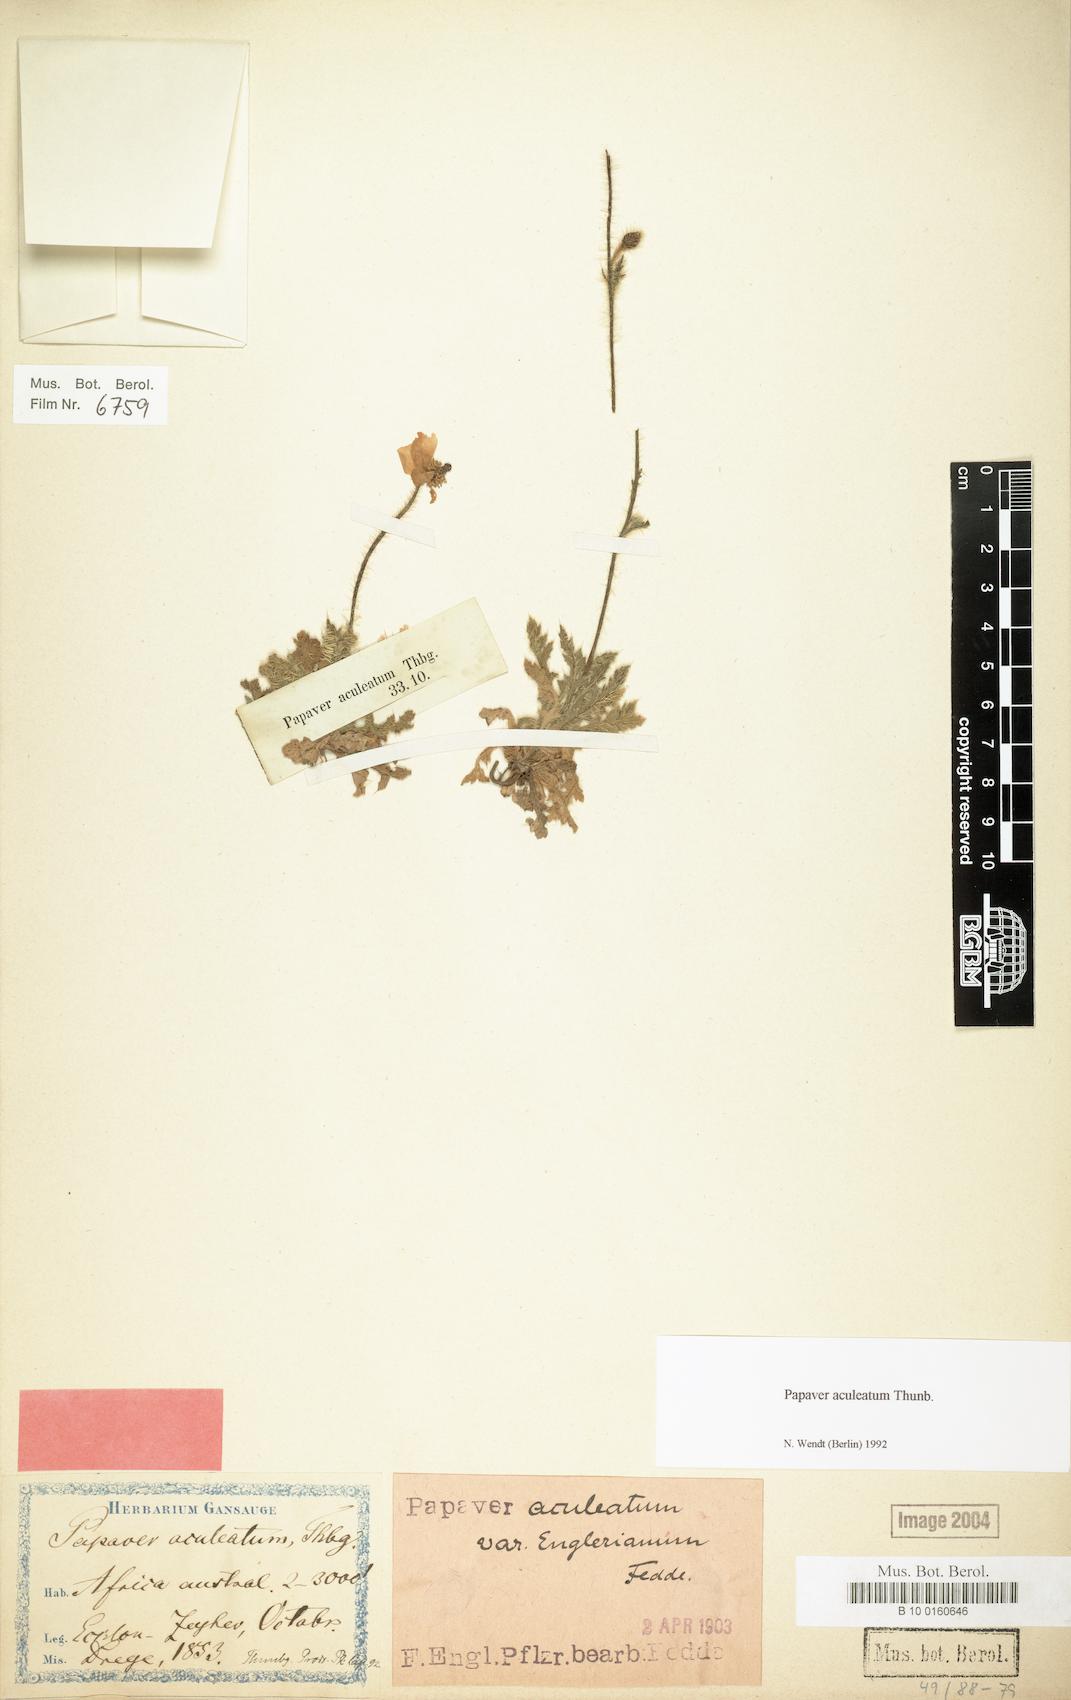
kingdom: Plantae
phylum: Tracheophyta
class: Magnoliopsida
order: Ranunculales
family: Papaveraceae
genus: Papaver
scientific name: Papaver aculeatum
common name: Bristle poppy
